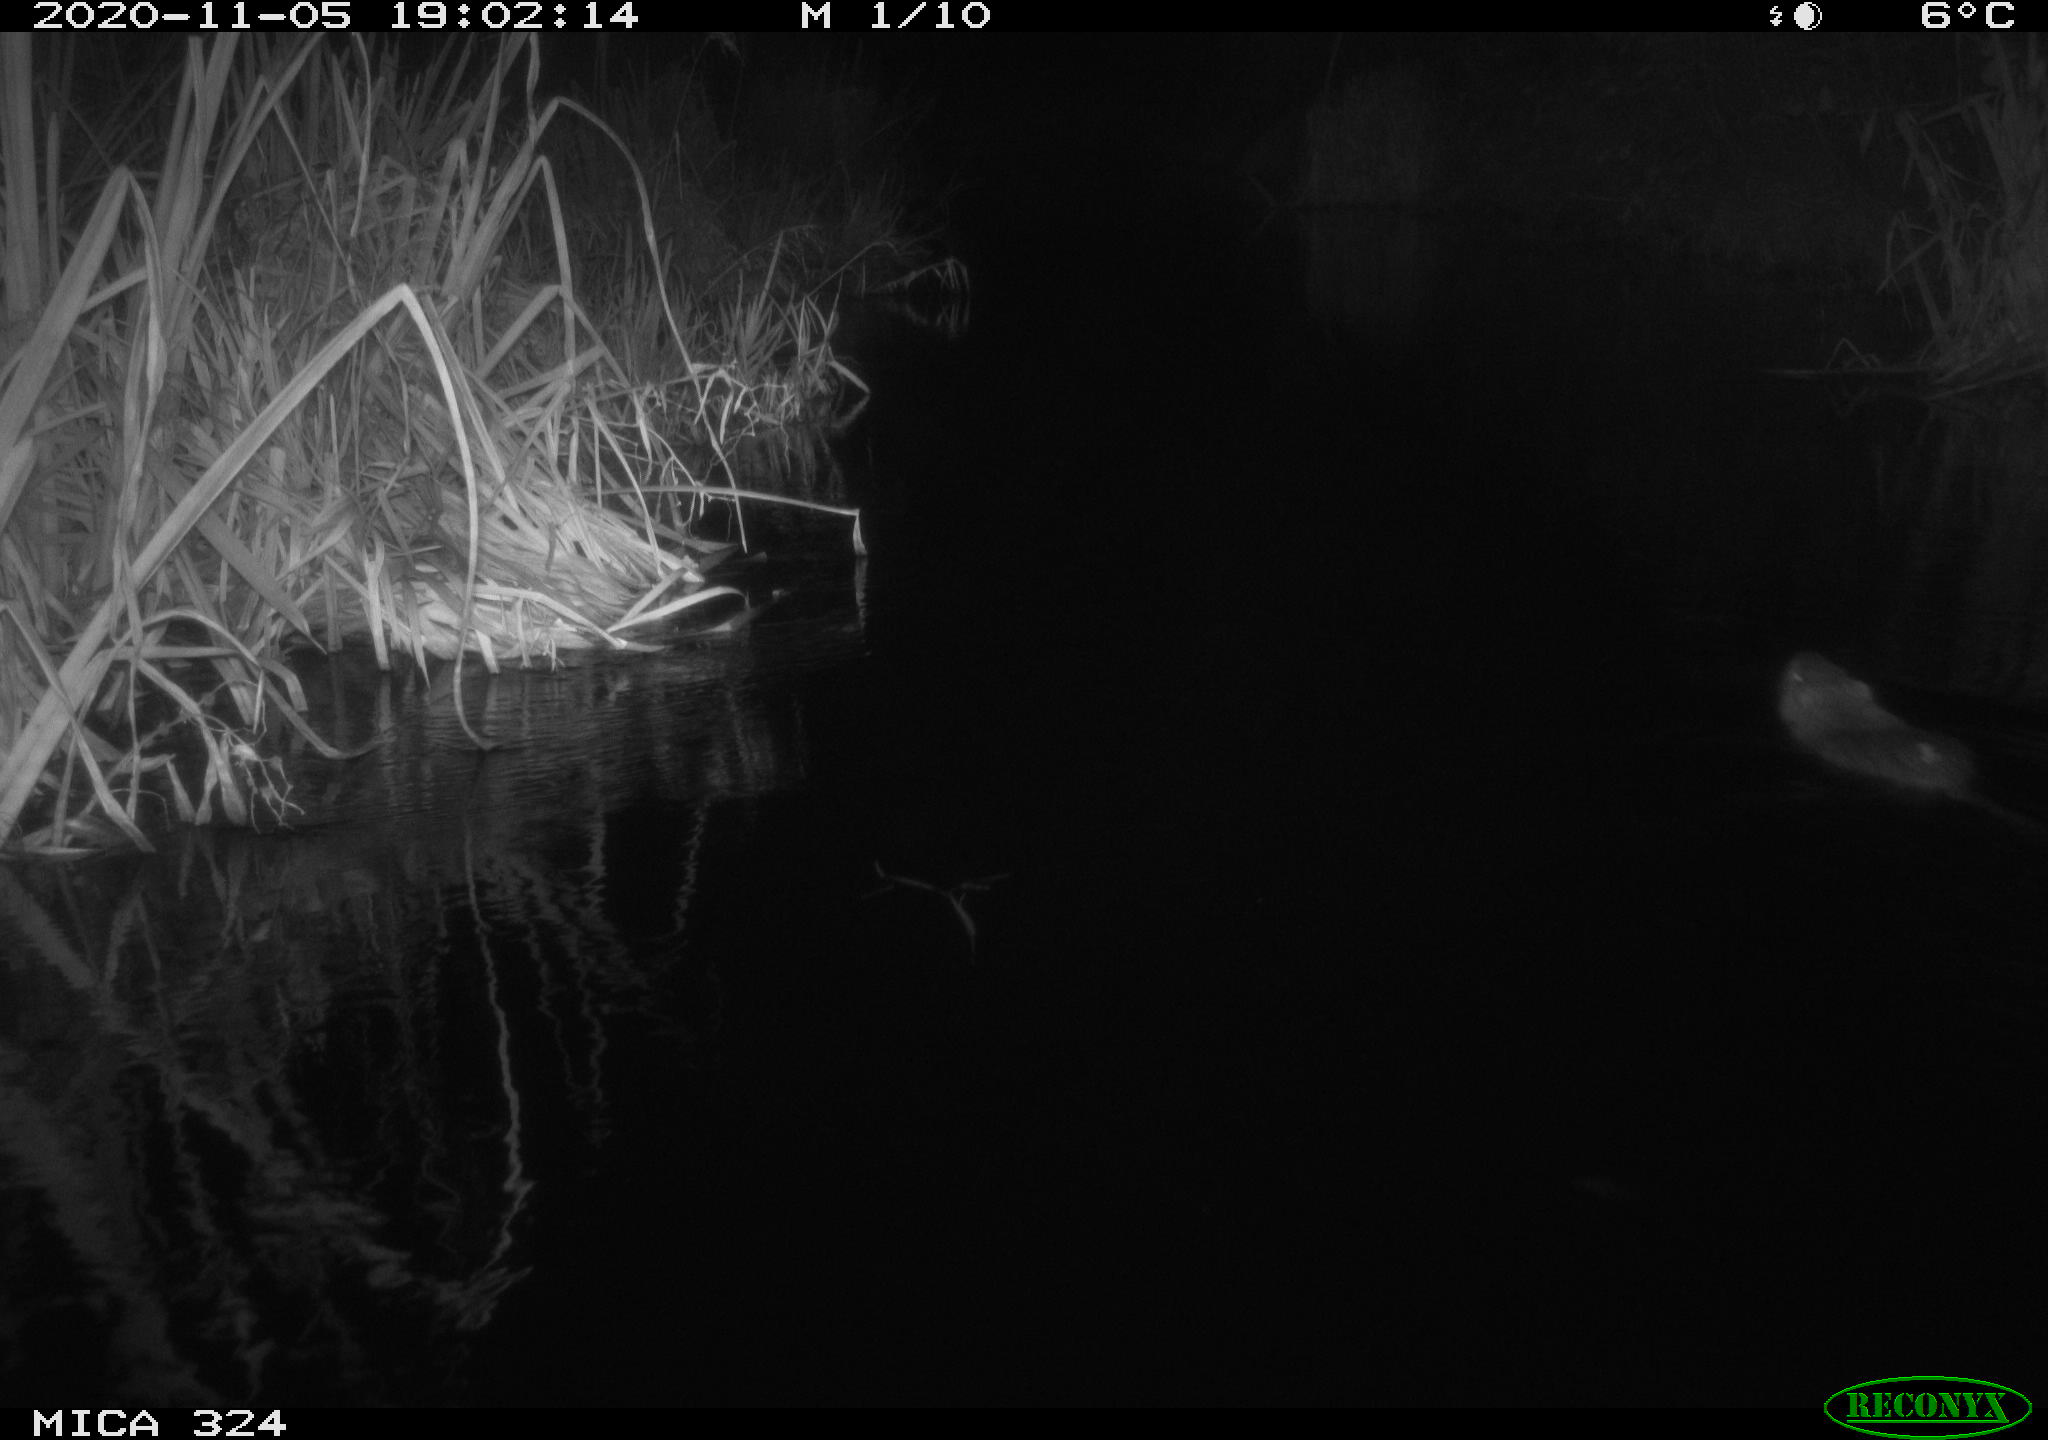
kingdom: Animalia
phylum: Chordata
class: Mammalia
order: Rodentia
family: Myocastoridae
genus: Myocastor
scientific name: Myocastor coypus
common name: Coypu
